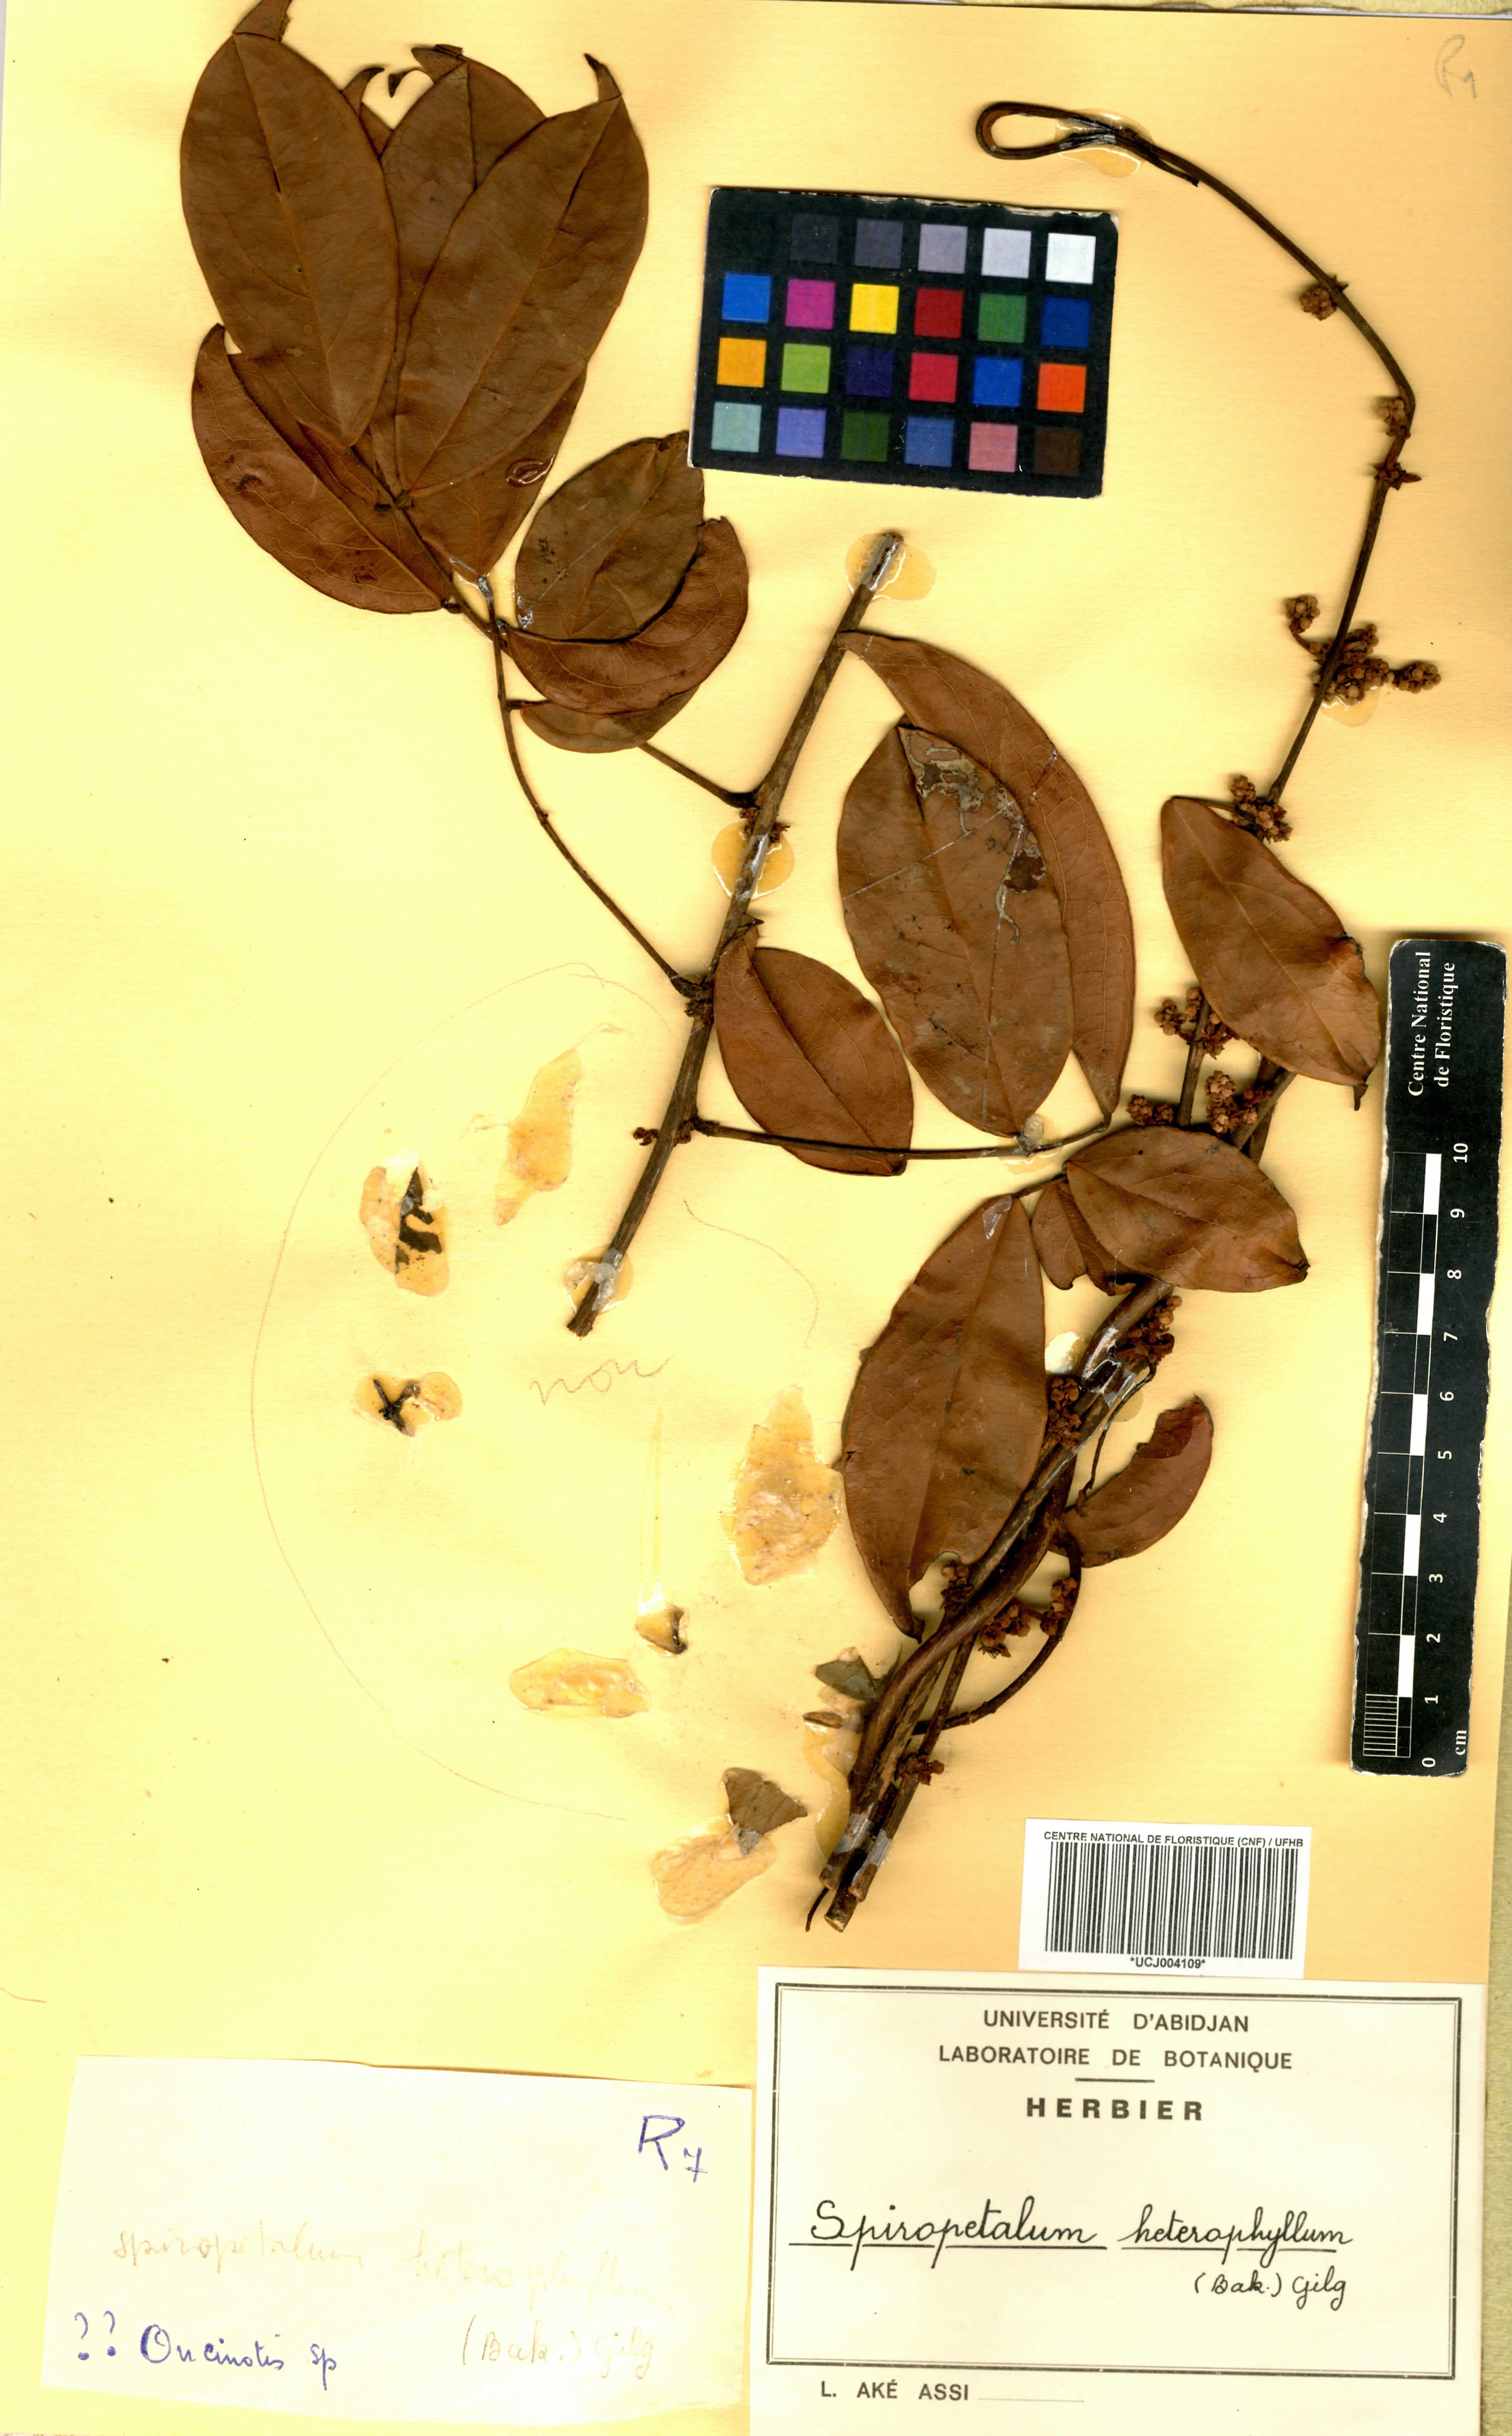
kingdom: Plantae
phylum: Tracheophyta
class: Magnoliopsida
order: Oxalidales
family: Connaraceae
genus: Rourea
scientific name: Rourea solanderi
